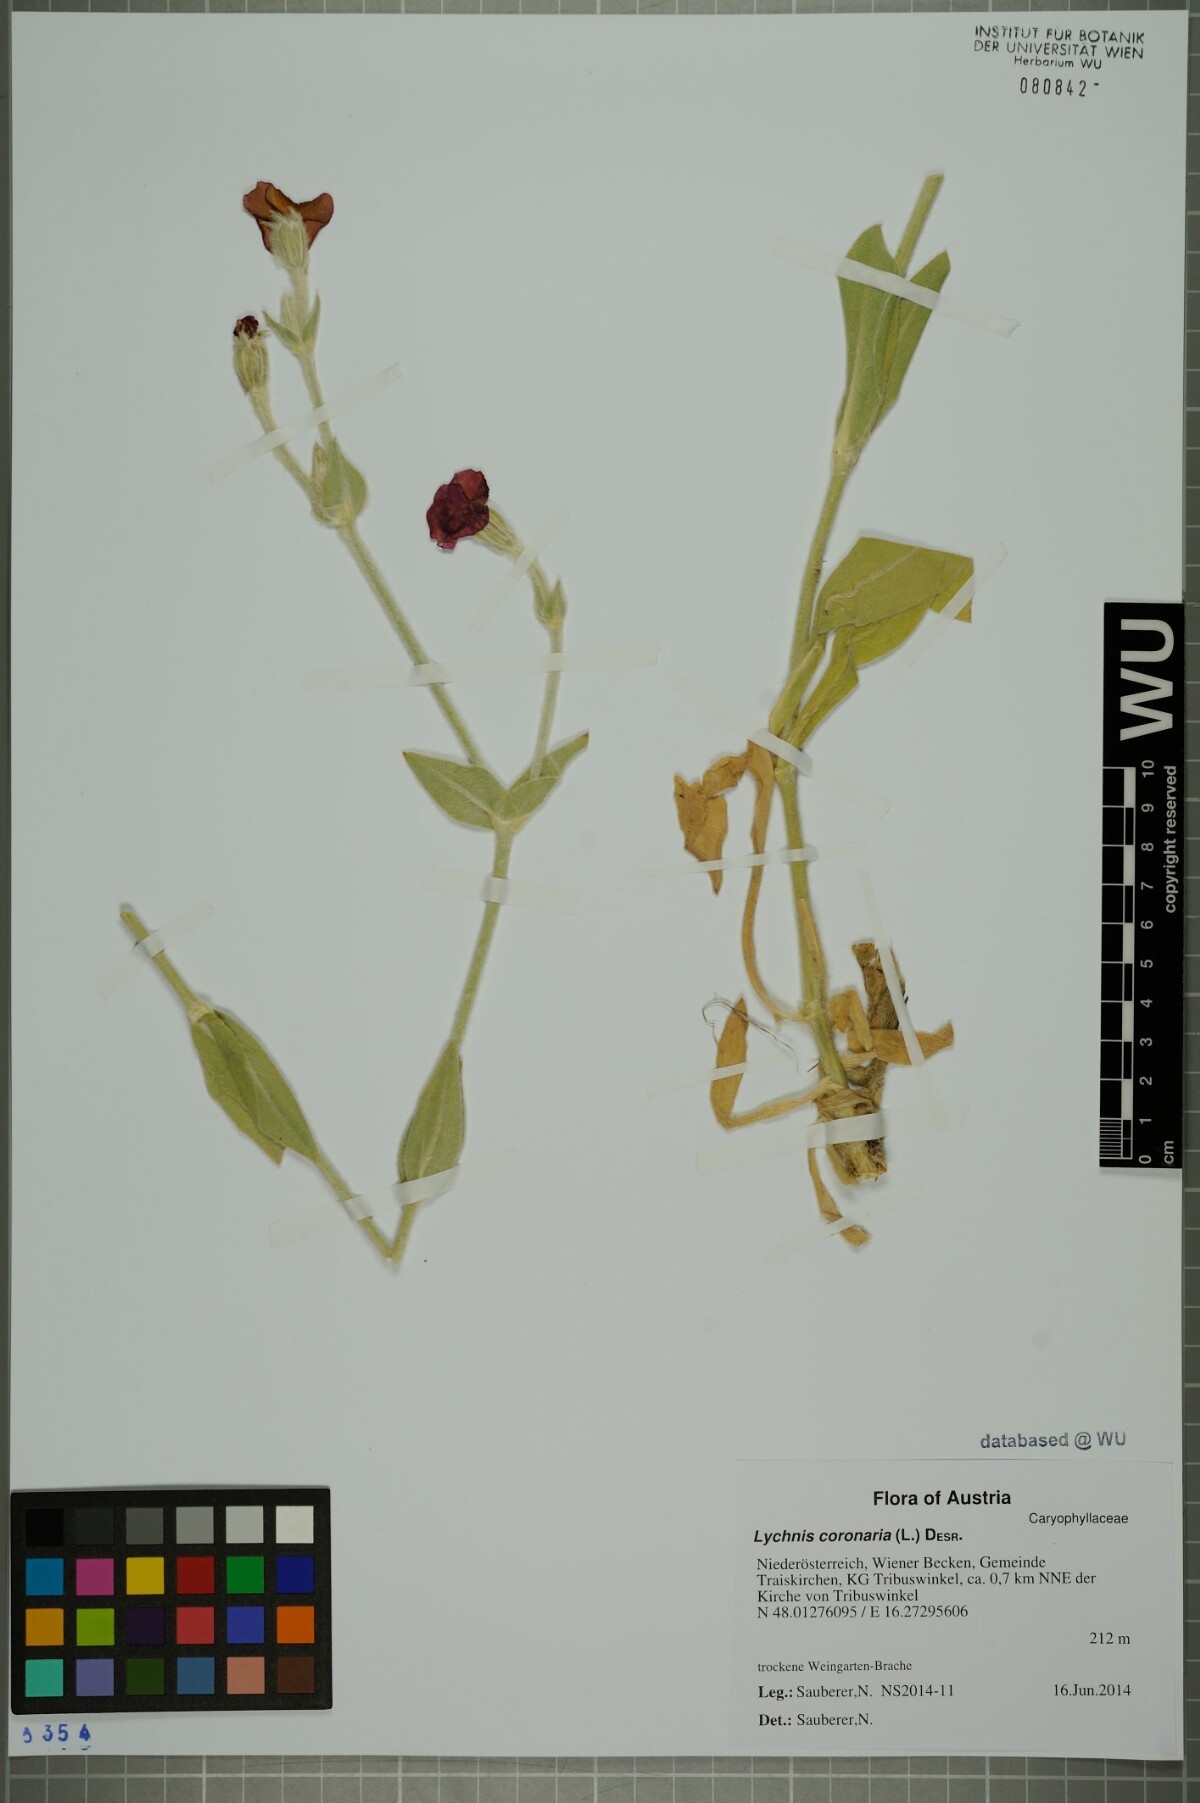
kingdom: Plantae
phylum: Tracheophyta
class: Magnoliopsida
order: Caryophyllales
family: Caryophyllaceae
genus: Silene
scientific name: Silene coronaria
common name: Rose campion
